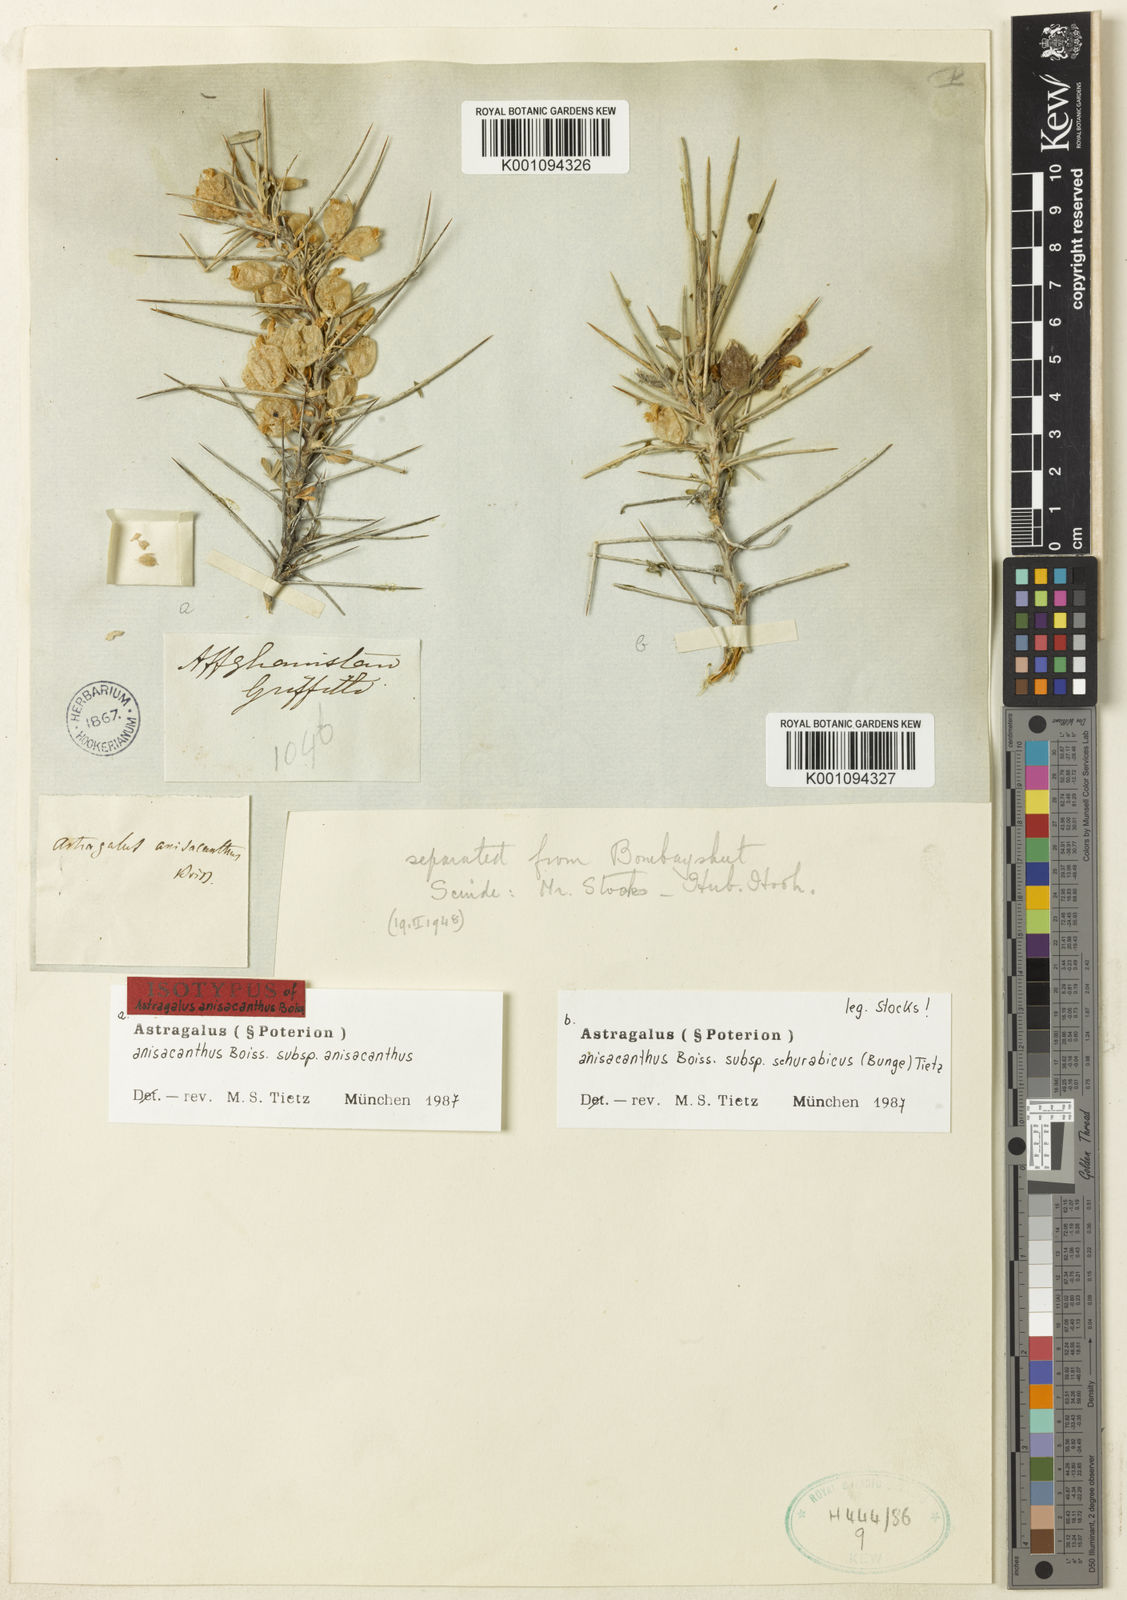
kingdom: Plantae
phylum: Tracheophyta
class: Magnoliopsida
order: Fabales
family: Fabaceae
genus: Astragalus
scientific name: Astragalus anisacanthus
